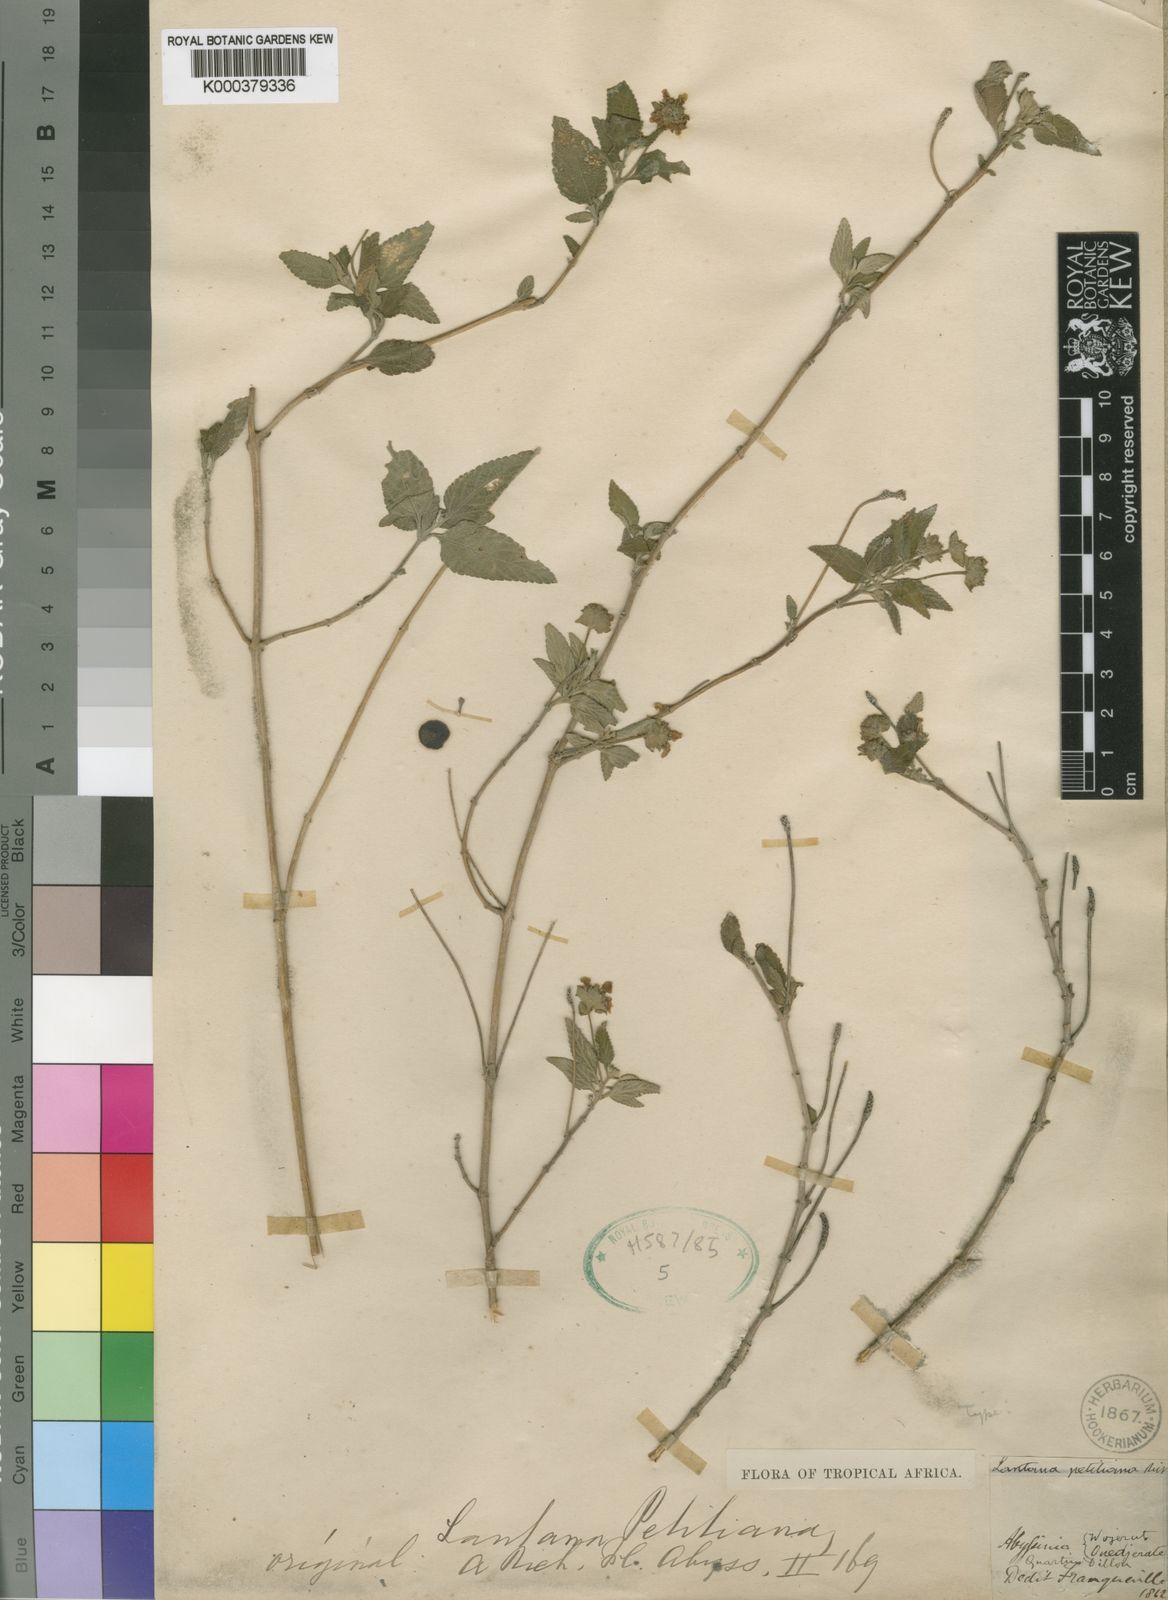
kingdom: Plantae
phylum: Tracheophyta
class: Magnoliopsida
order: Lamiales
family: Verbenaceae
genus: Lantana
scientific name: Lantana viburnoides
